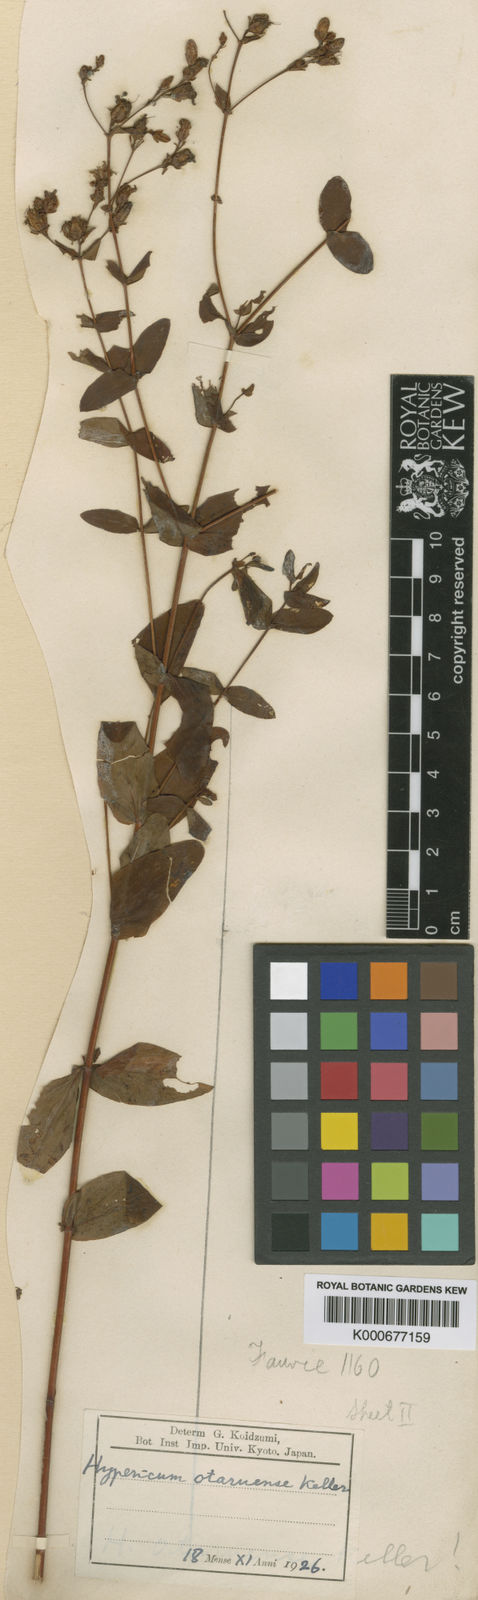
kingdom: Plantae
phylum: Tracheophyta
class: Magnoliopsida
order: Malpighiales
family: Hypericaceae
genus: Hypericum
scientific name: Hypericum erectum
